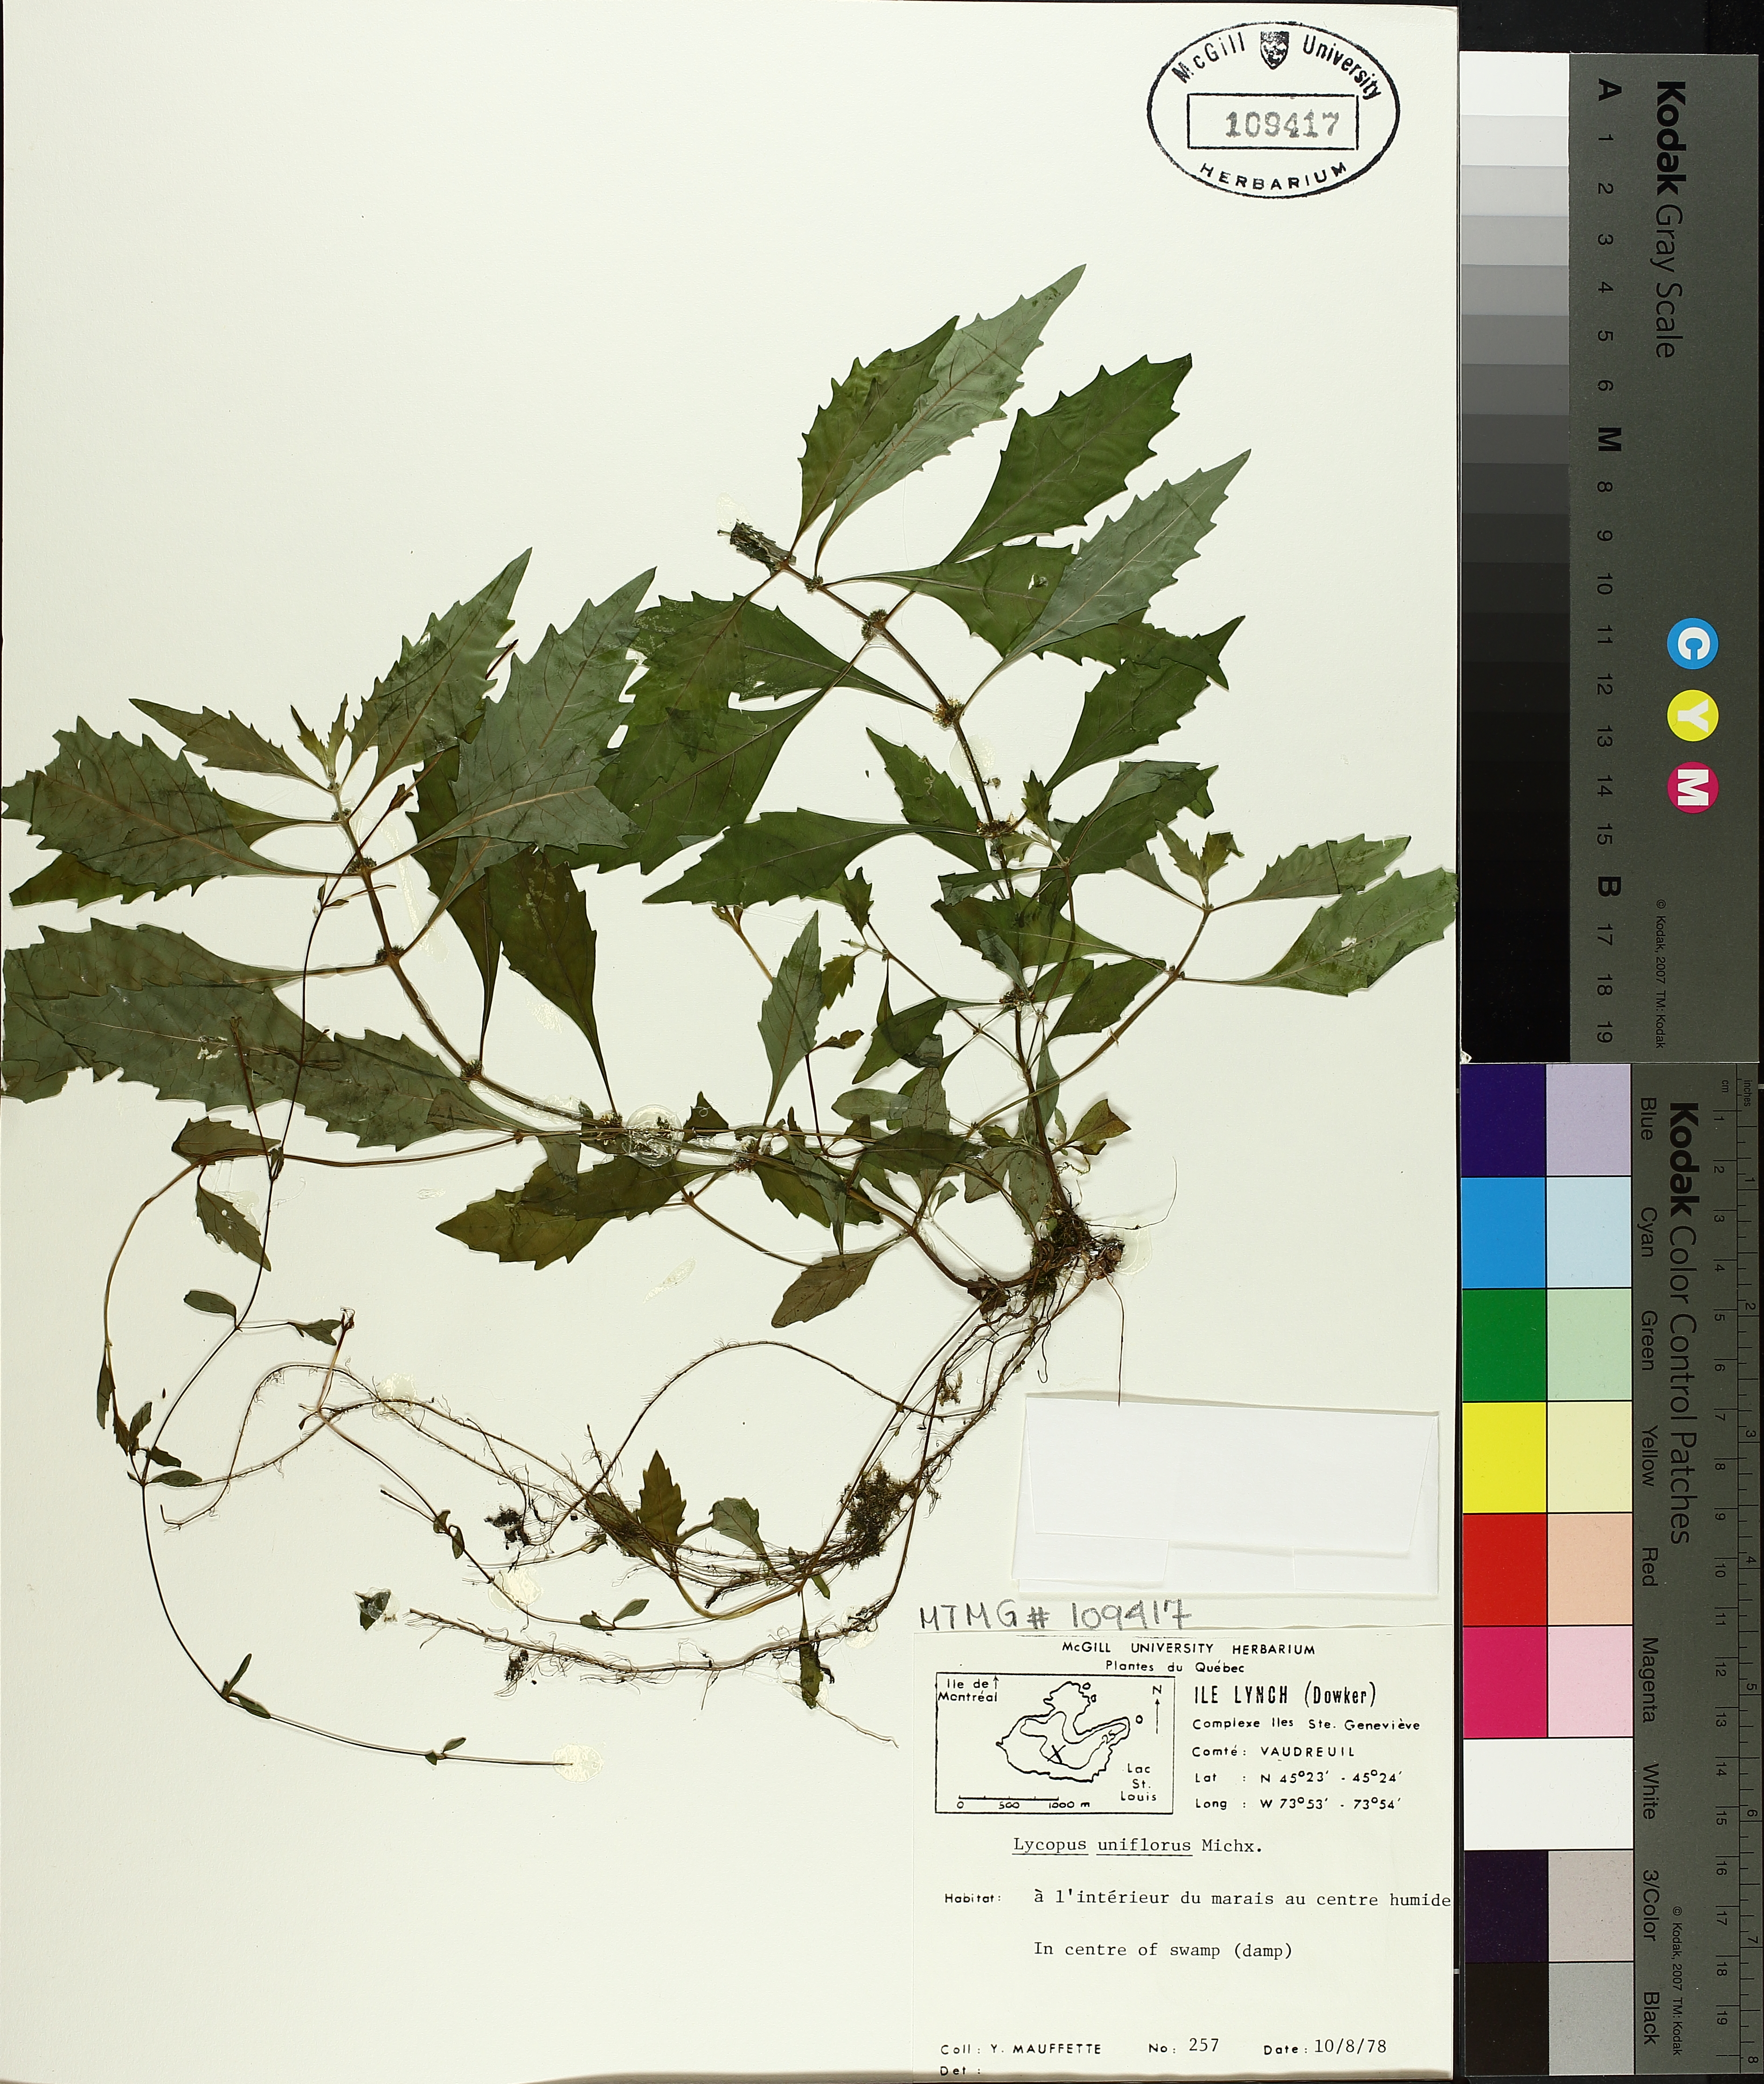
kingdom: Plantae
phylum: Tracheophyta
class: Magnoliopsida
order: Lamiales
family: Lamiaceae
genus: Lycopus
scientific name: Lycopus uniflorus
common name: Northern bugleweed
